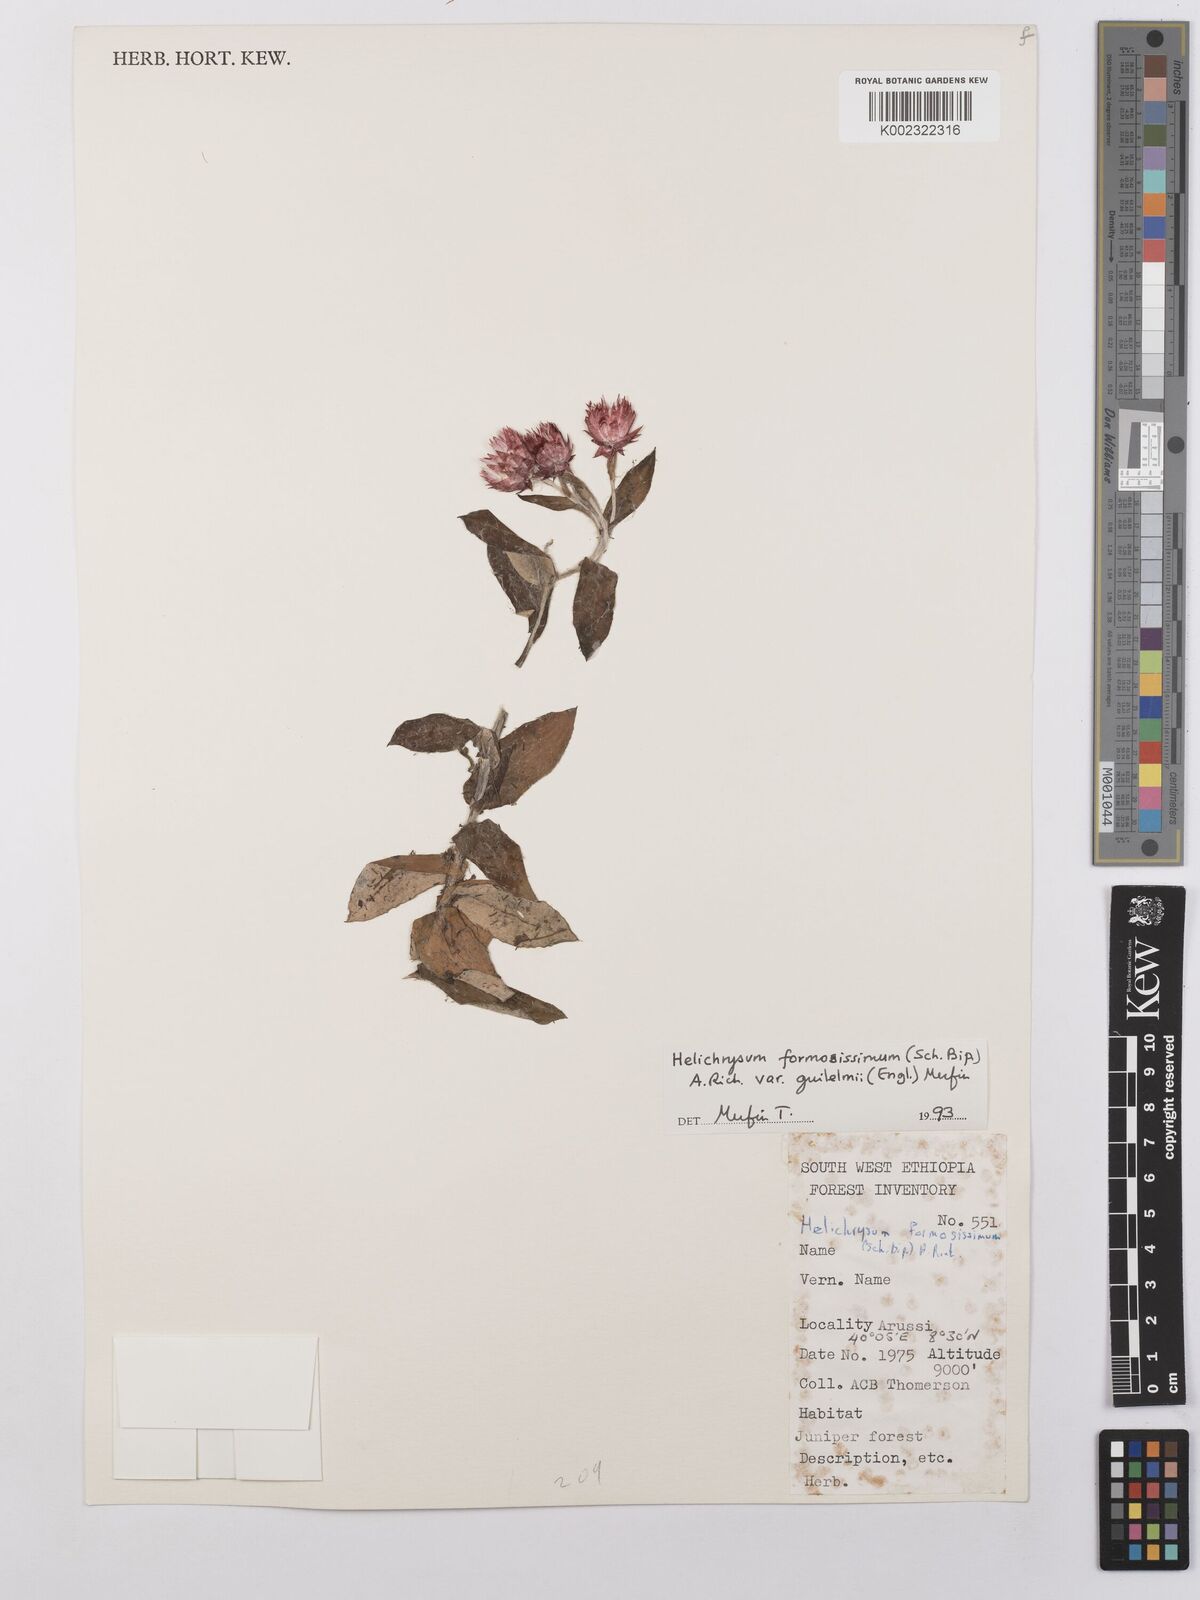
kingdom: Plantae
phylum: Tracheophyta
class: Magnoliopsida
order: Asterales
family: Asteraceae
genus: Helichrysum
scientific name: Helichrysum formosissimum
